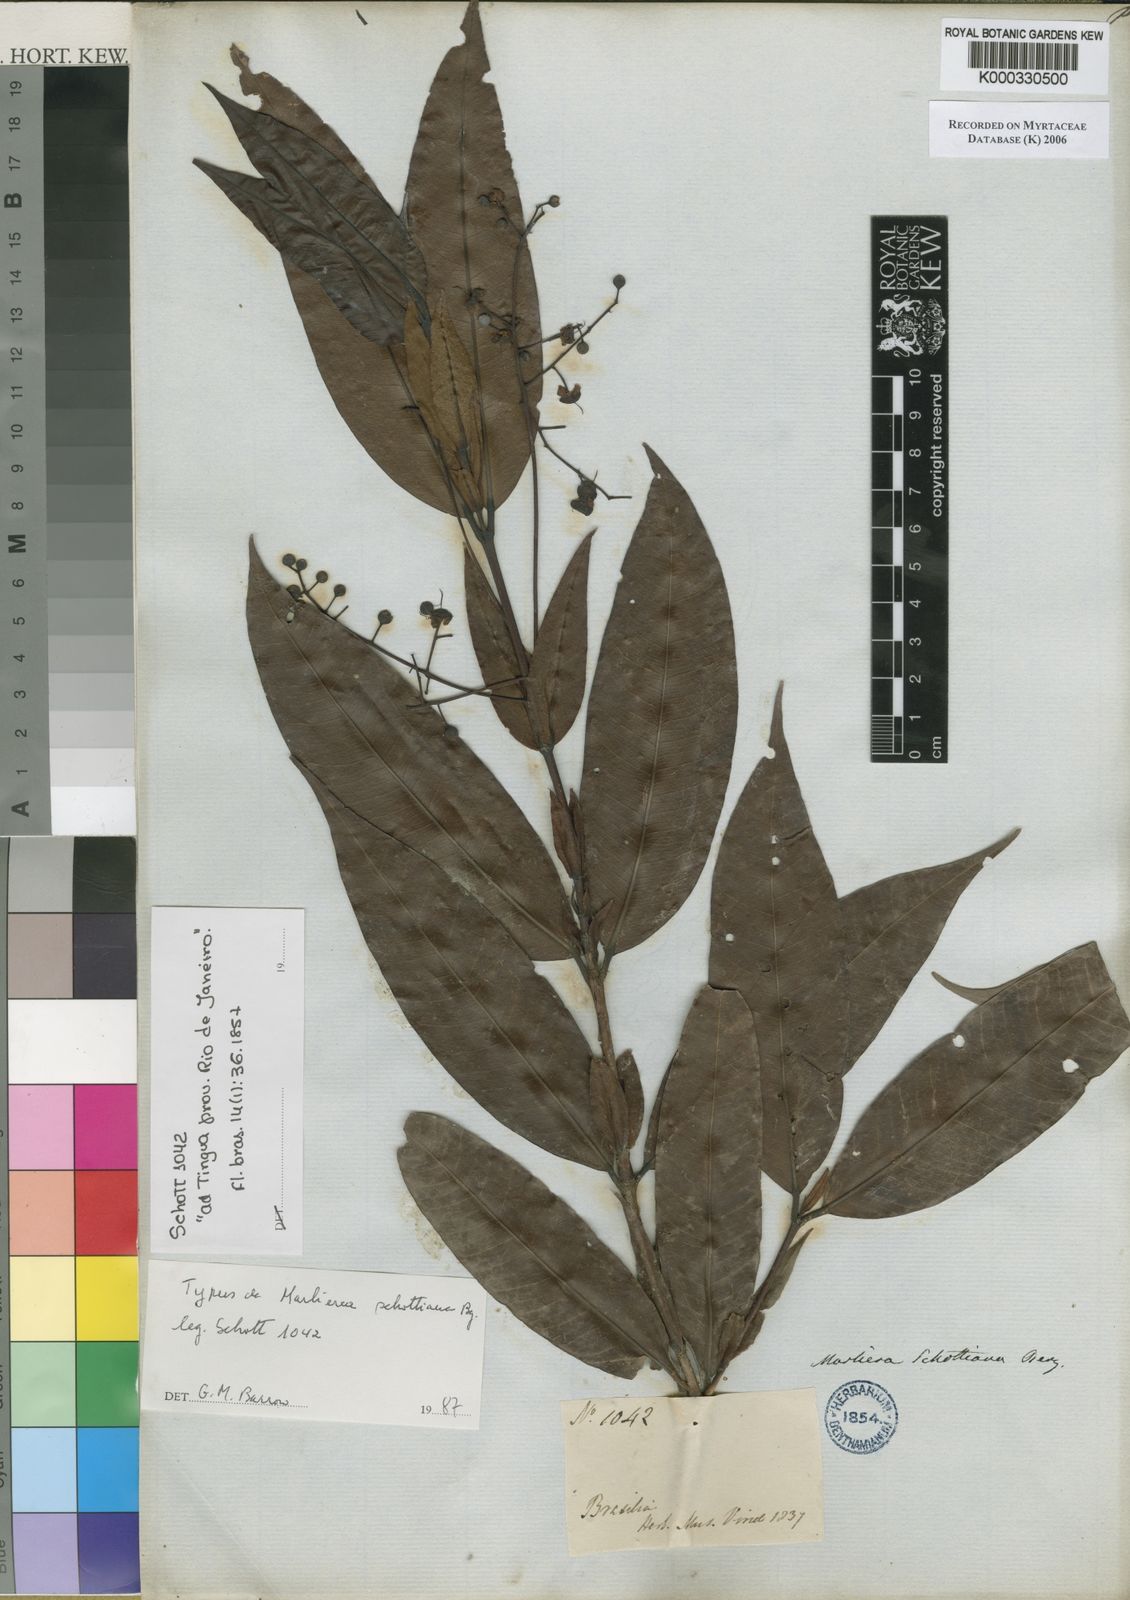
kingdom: Plantae
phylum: Tracheophyta
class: Magnoliopsida
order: Myrtales
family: Myrtaceae
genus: Myrcia
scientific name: Myrcia neoglabra
